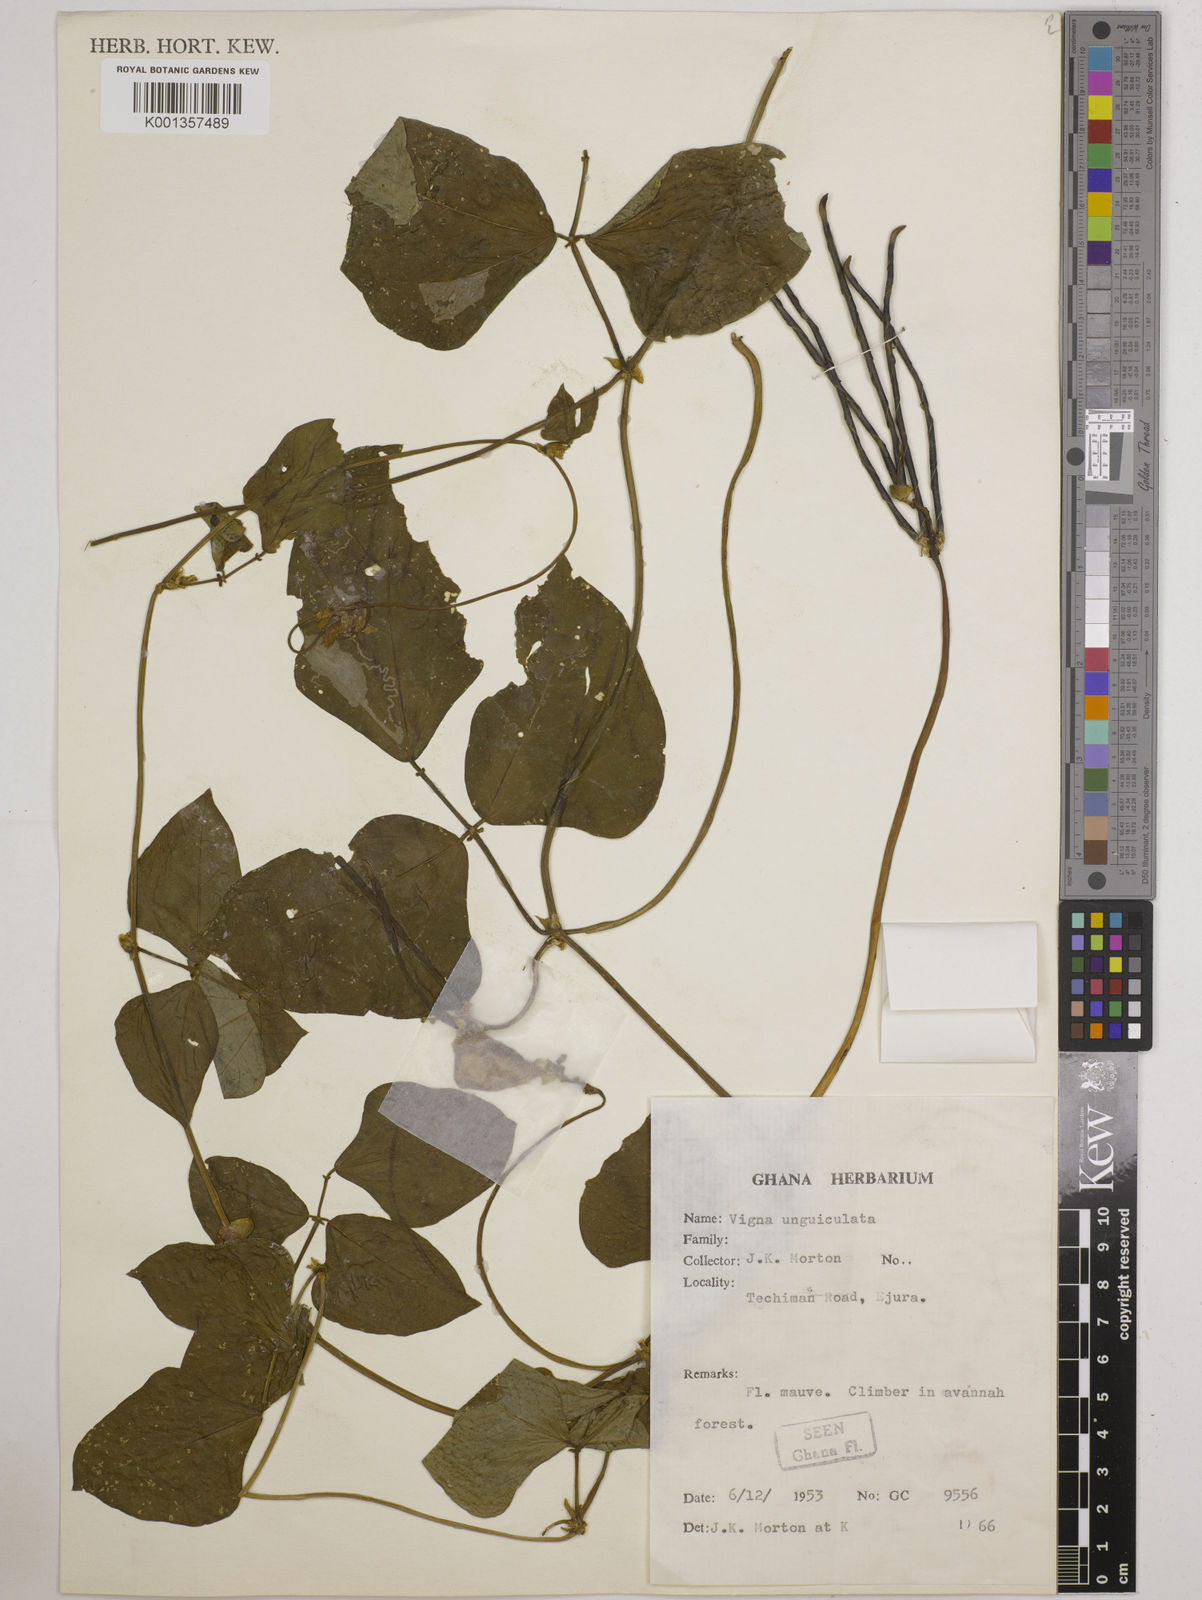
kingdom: Plantae
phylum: Tracheophyta
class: Magnoliopsida
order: Fabales
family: Fabaceae
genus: Vigna
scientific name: Vigna unguiculata
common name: Cowpea
